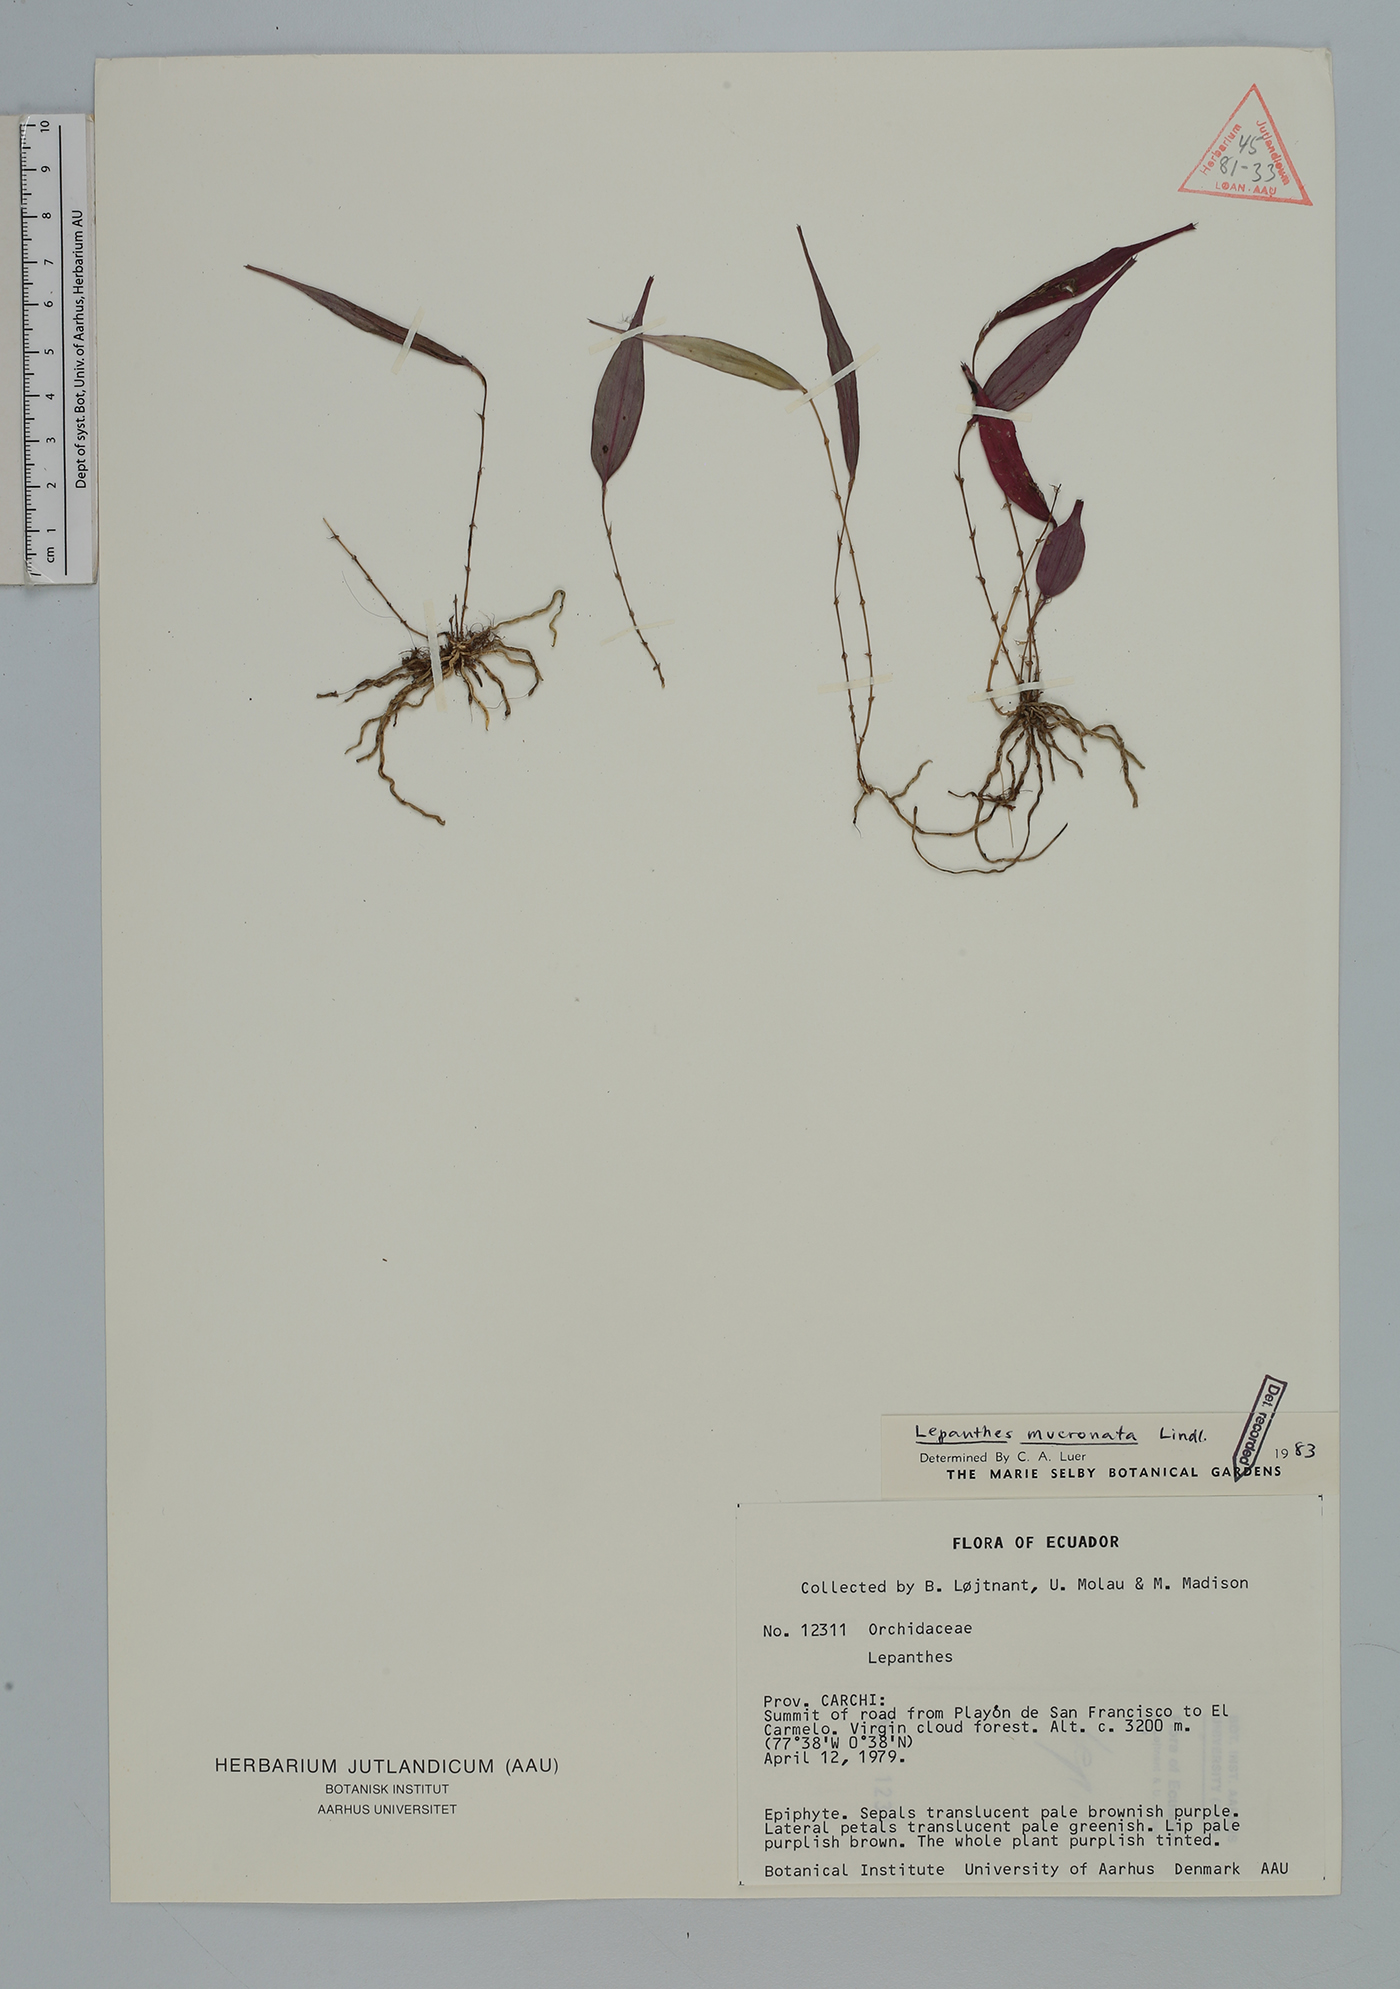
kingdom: Plantae
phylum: Tracheophyta
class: Liliopsida
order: Asparagales
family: Orchidaceae
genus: Lepanthes
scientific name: Lepanthes mucronata
